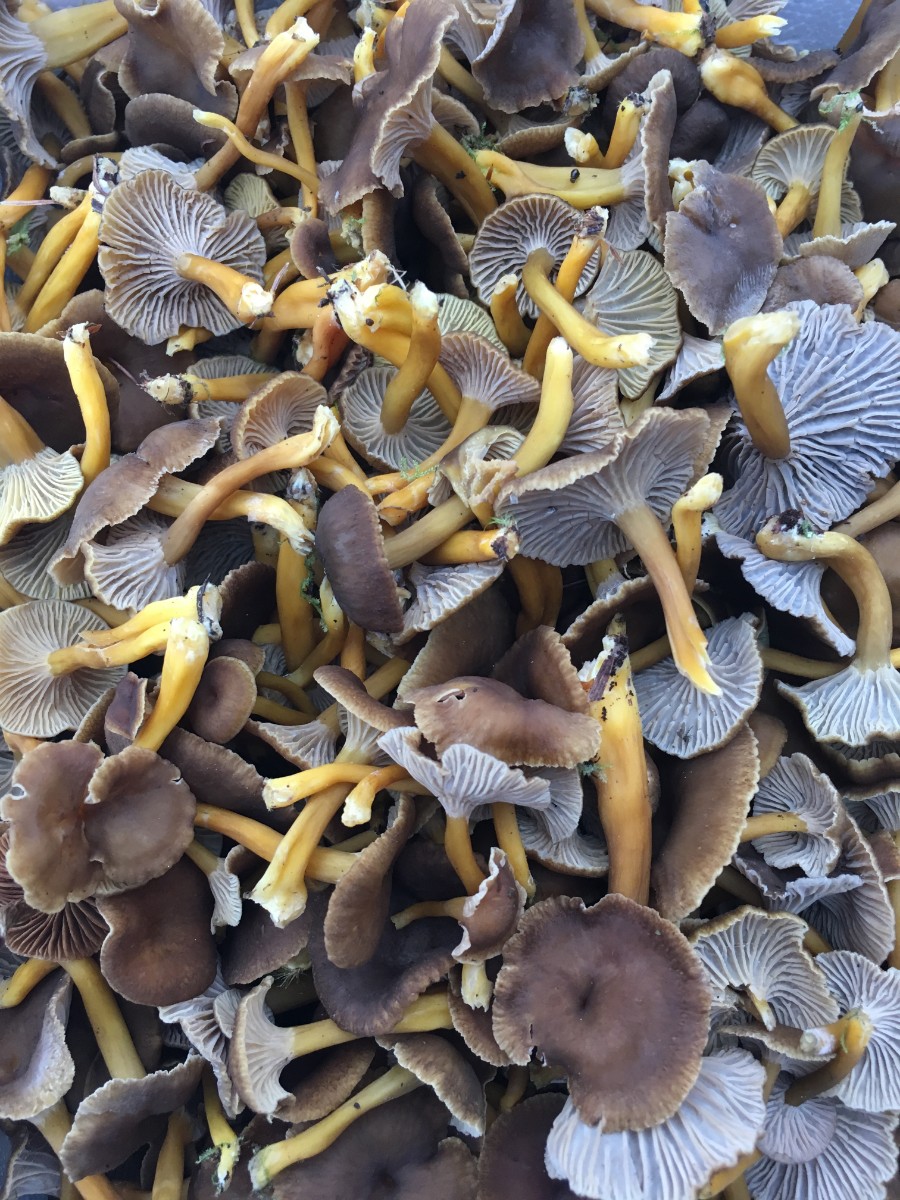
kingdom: Fungi
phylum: Basidiomycota
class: Agaricomycetes
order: Cantharellales
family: Hydnaceae
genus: Craterellus
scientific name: Craterellus tubaeformis
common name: tragt-kantarel
